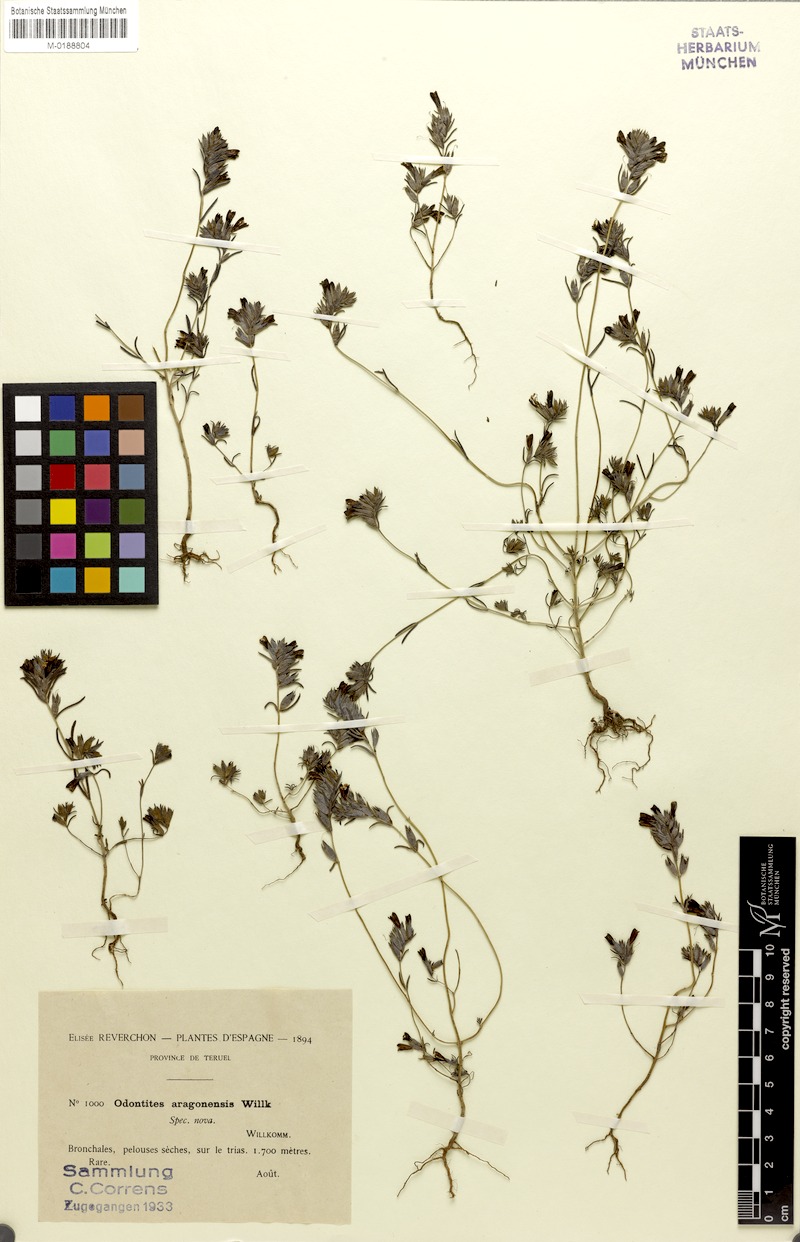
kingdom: Plantae
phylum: Tracheophyta
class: Magnoliopsida
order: Lamiales
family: Orobanchaceae
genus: Odontitella
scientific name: Odontitella virgata
